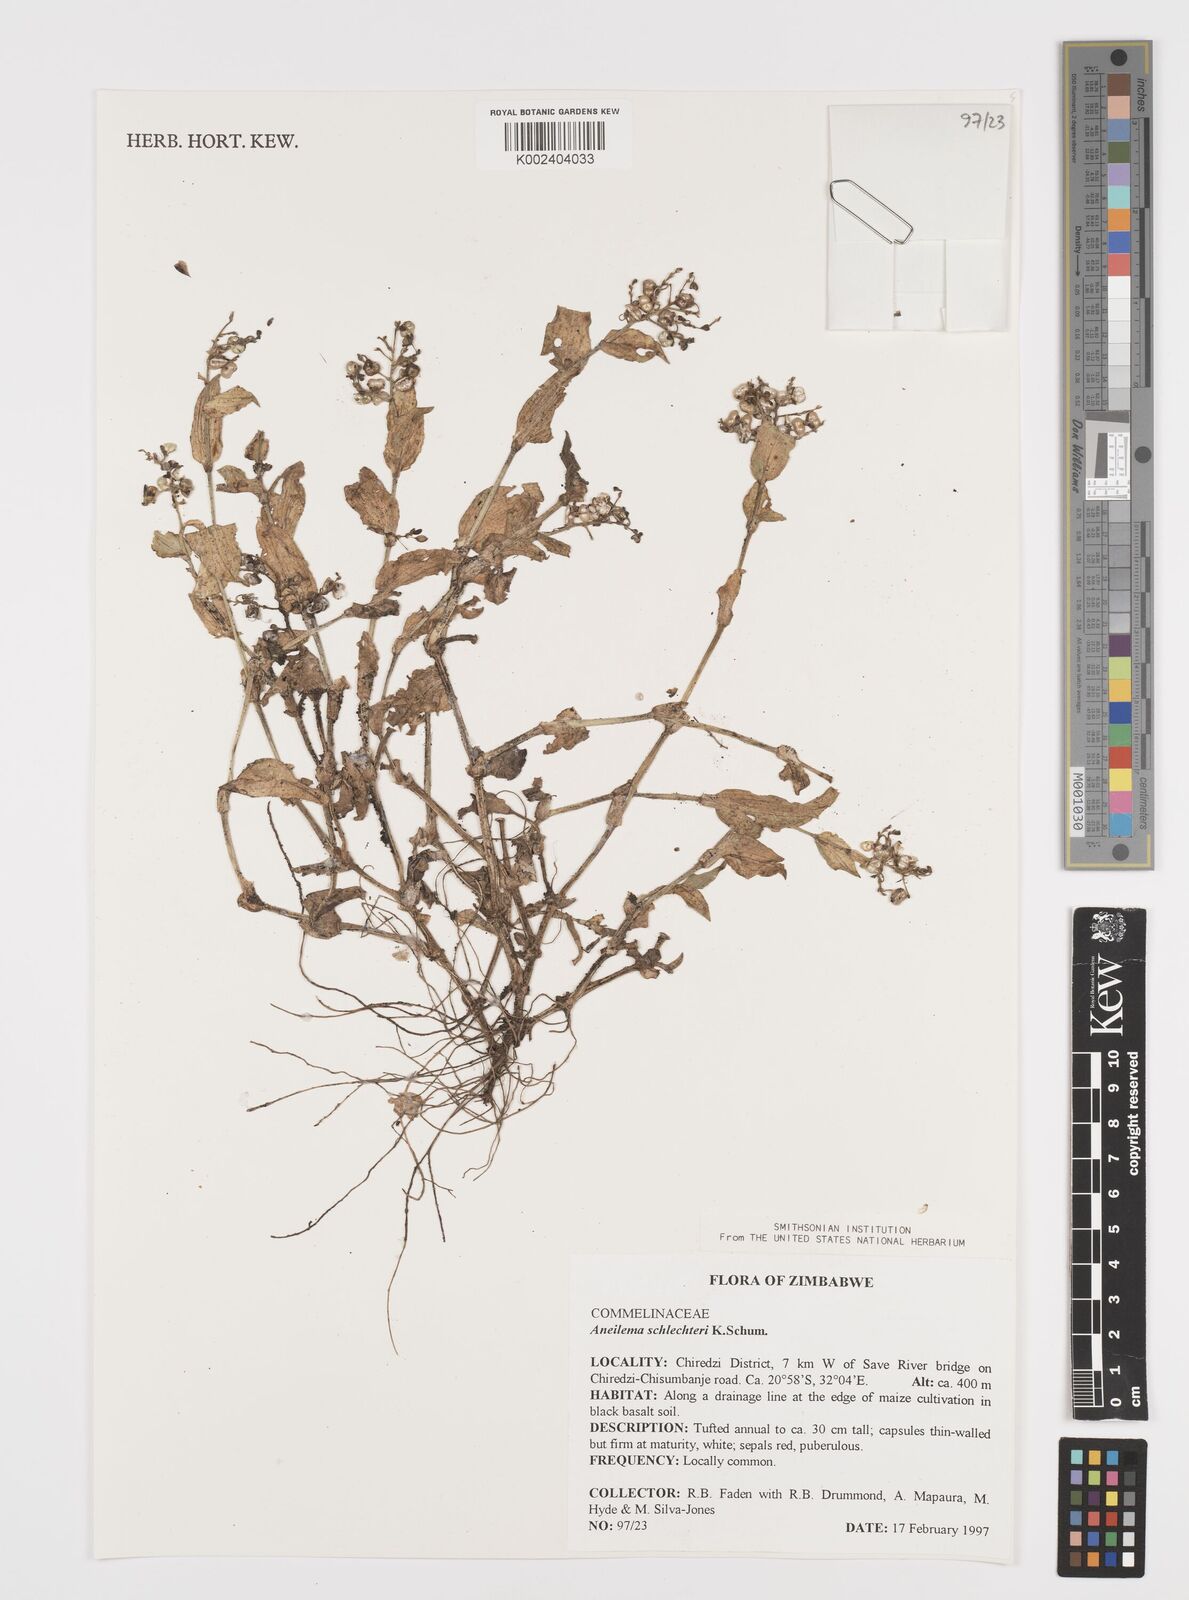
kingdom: Plantae
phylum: Tracheophyta
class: Liliopsida
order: Commelinales
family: Commelinaceae
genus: Aneilema
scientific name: Aneilema schlechteri
